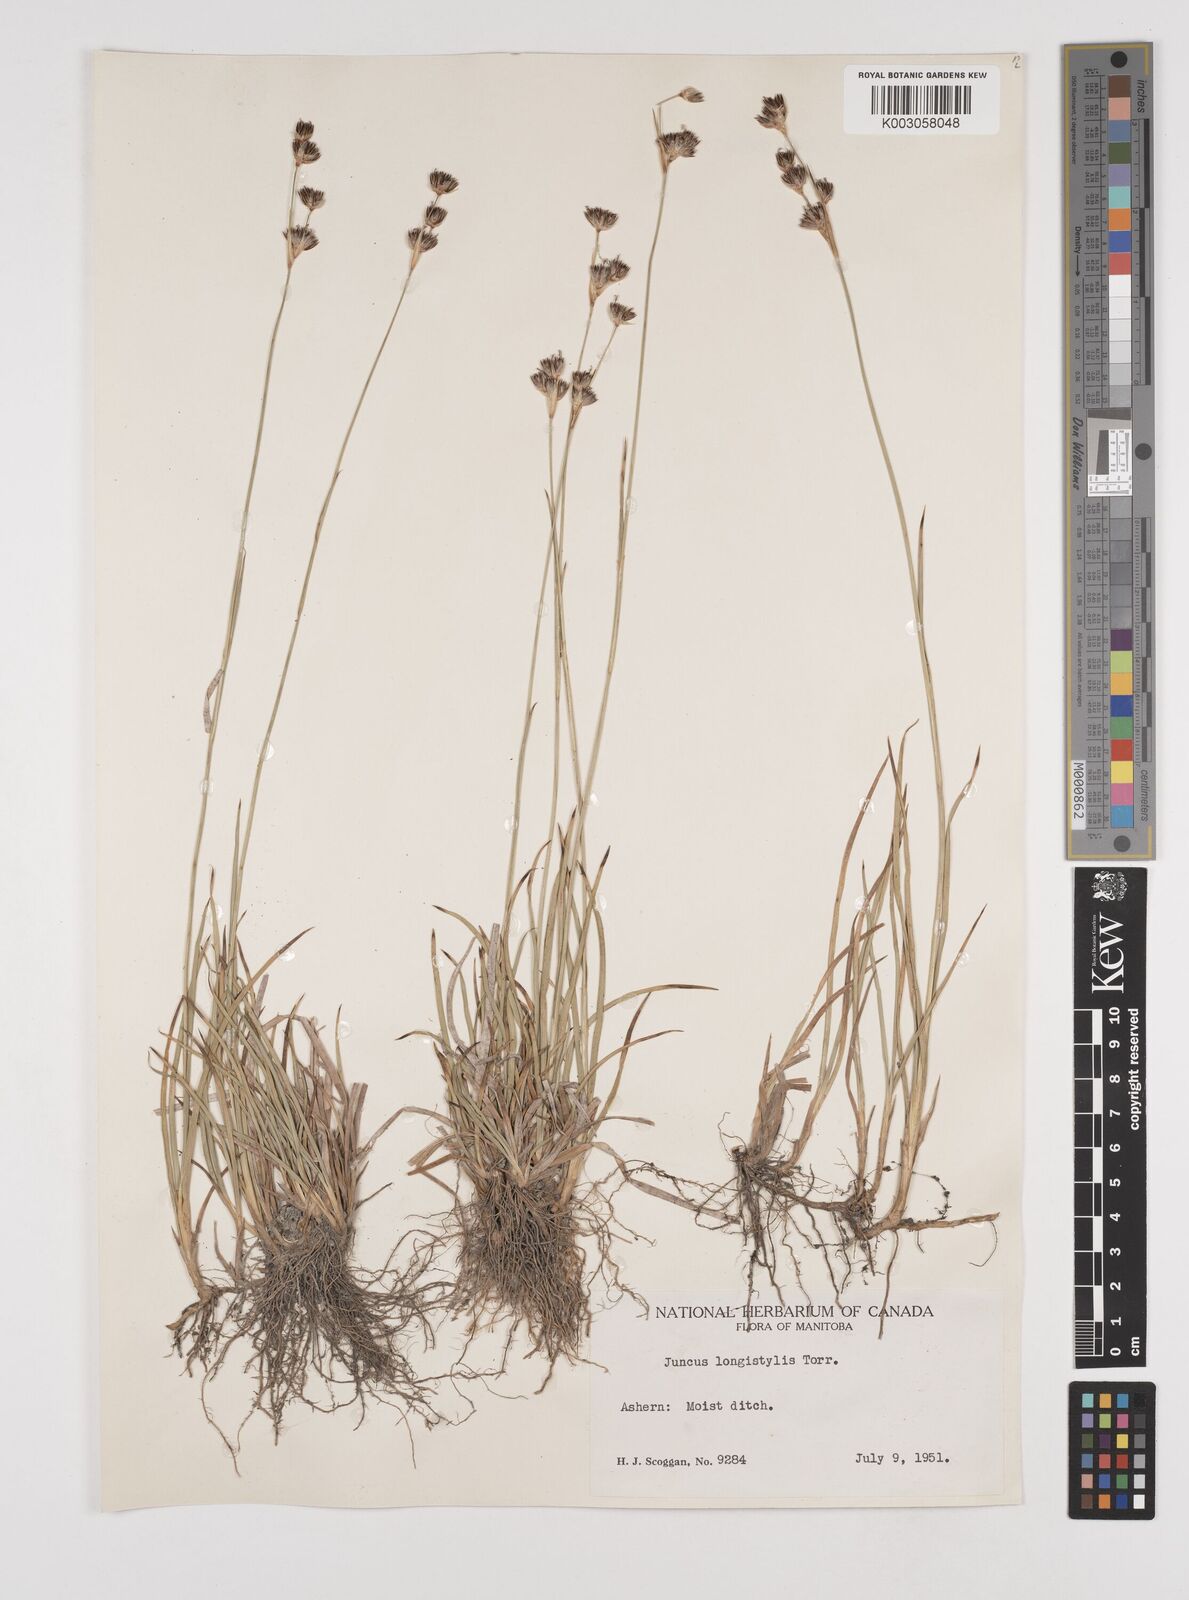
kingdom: Plantae
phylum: Tracheophyta
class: Liliopsida
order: Poales
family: Juncaceae
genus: Juncus
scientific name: Juncus longistylis
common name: Long-style rush
